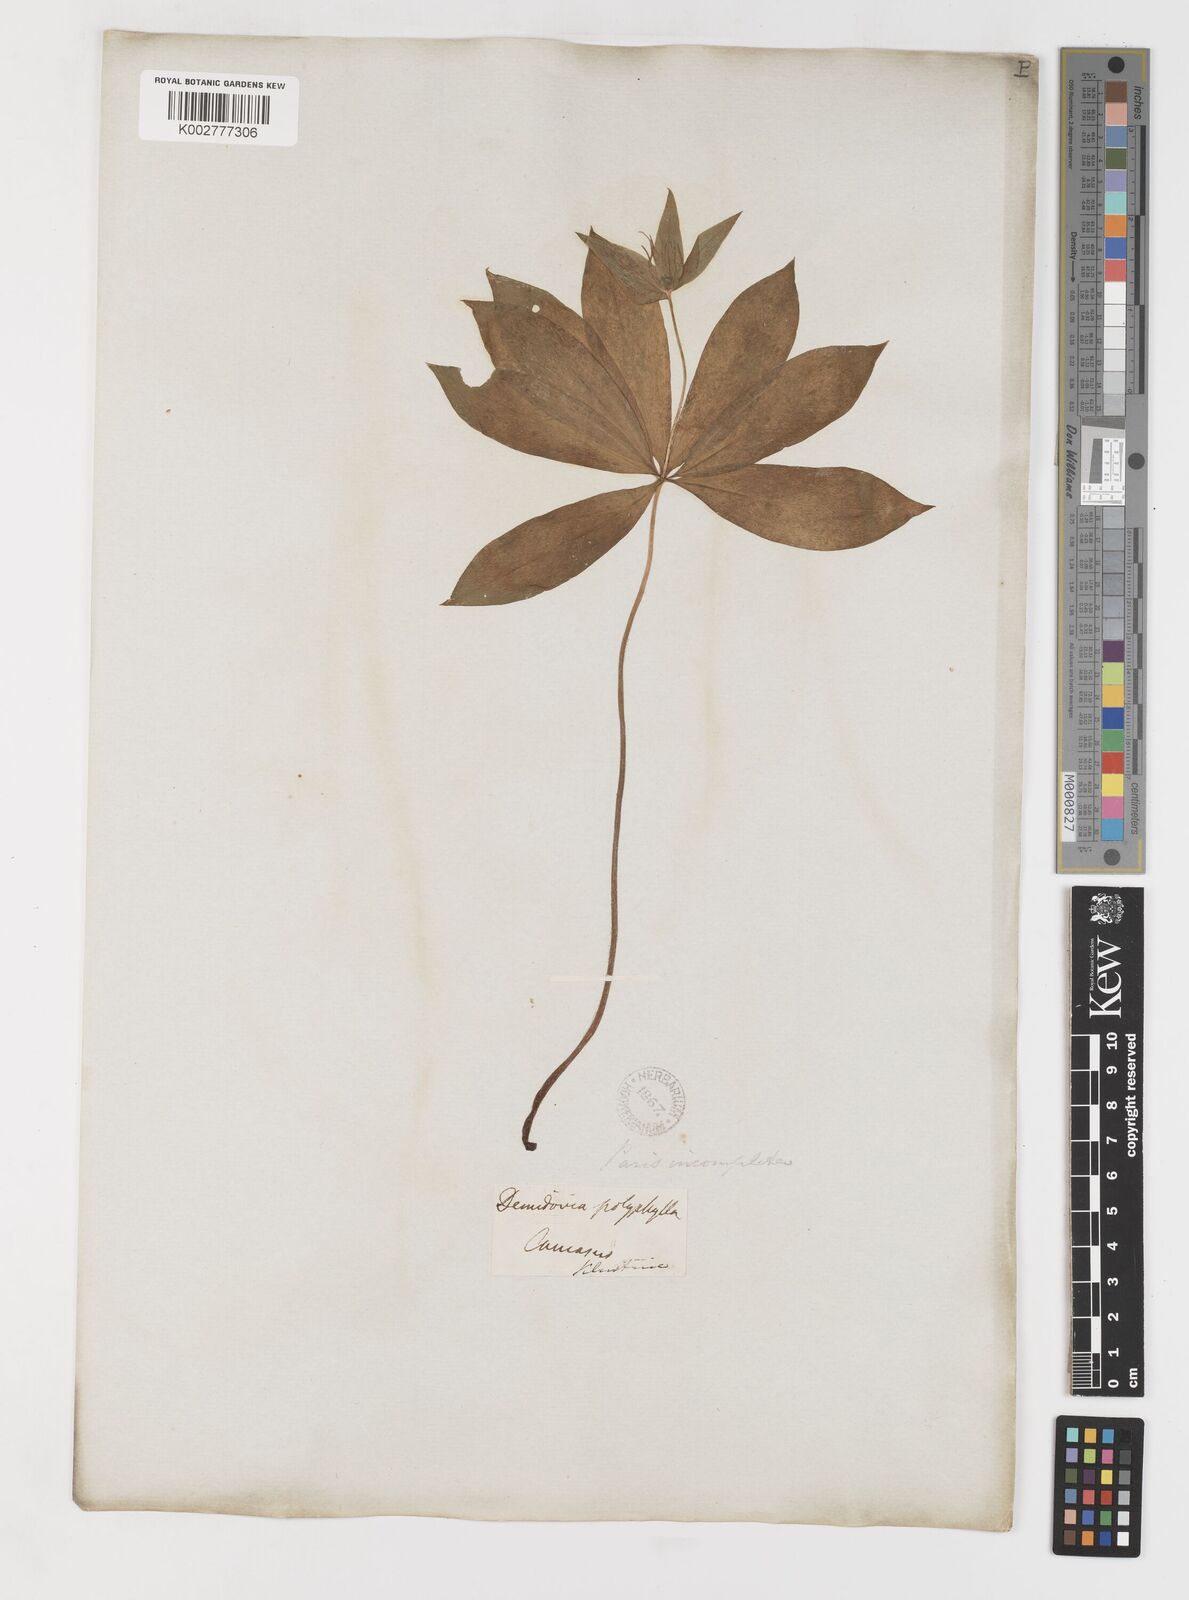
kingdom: Plantae
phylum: Tracheophyta
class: Liliopsida
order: Liliales
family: Melanthiaceae
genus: Paris
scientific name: Paris incompleta
